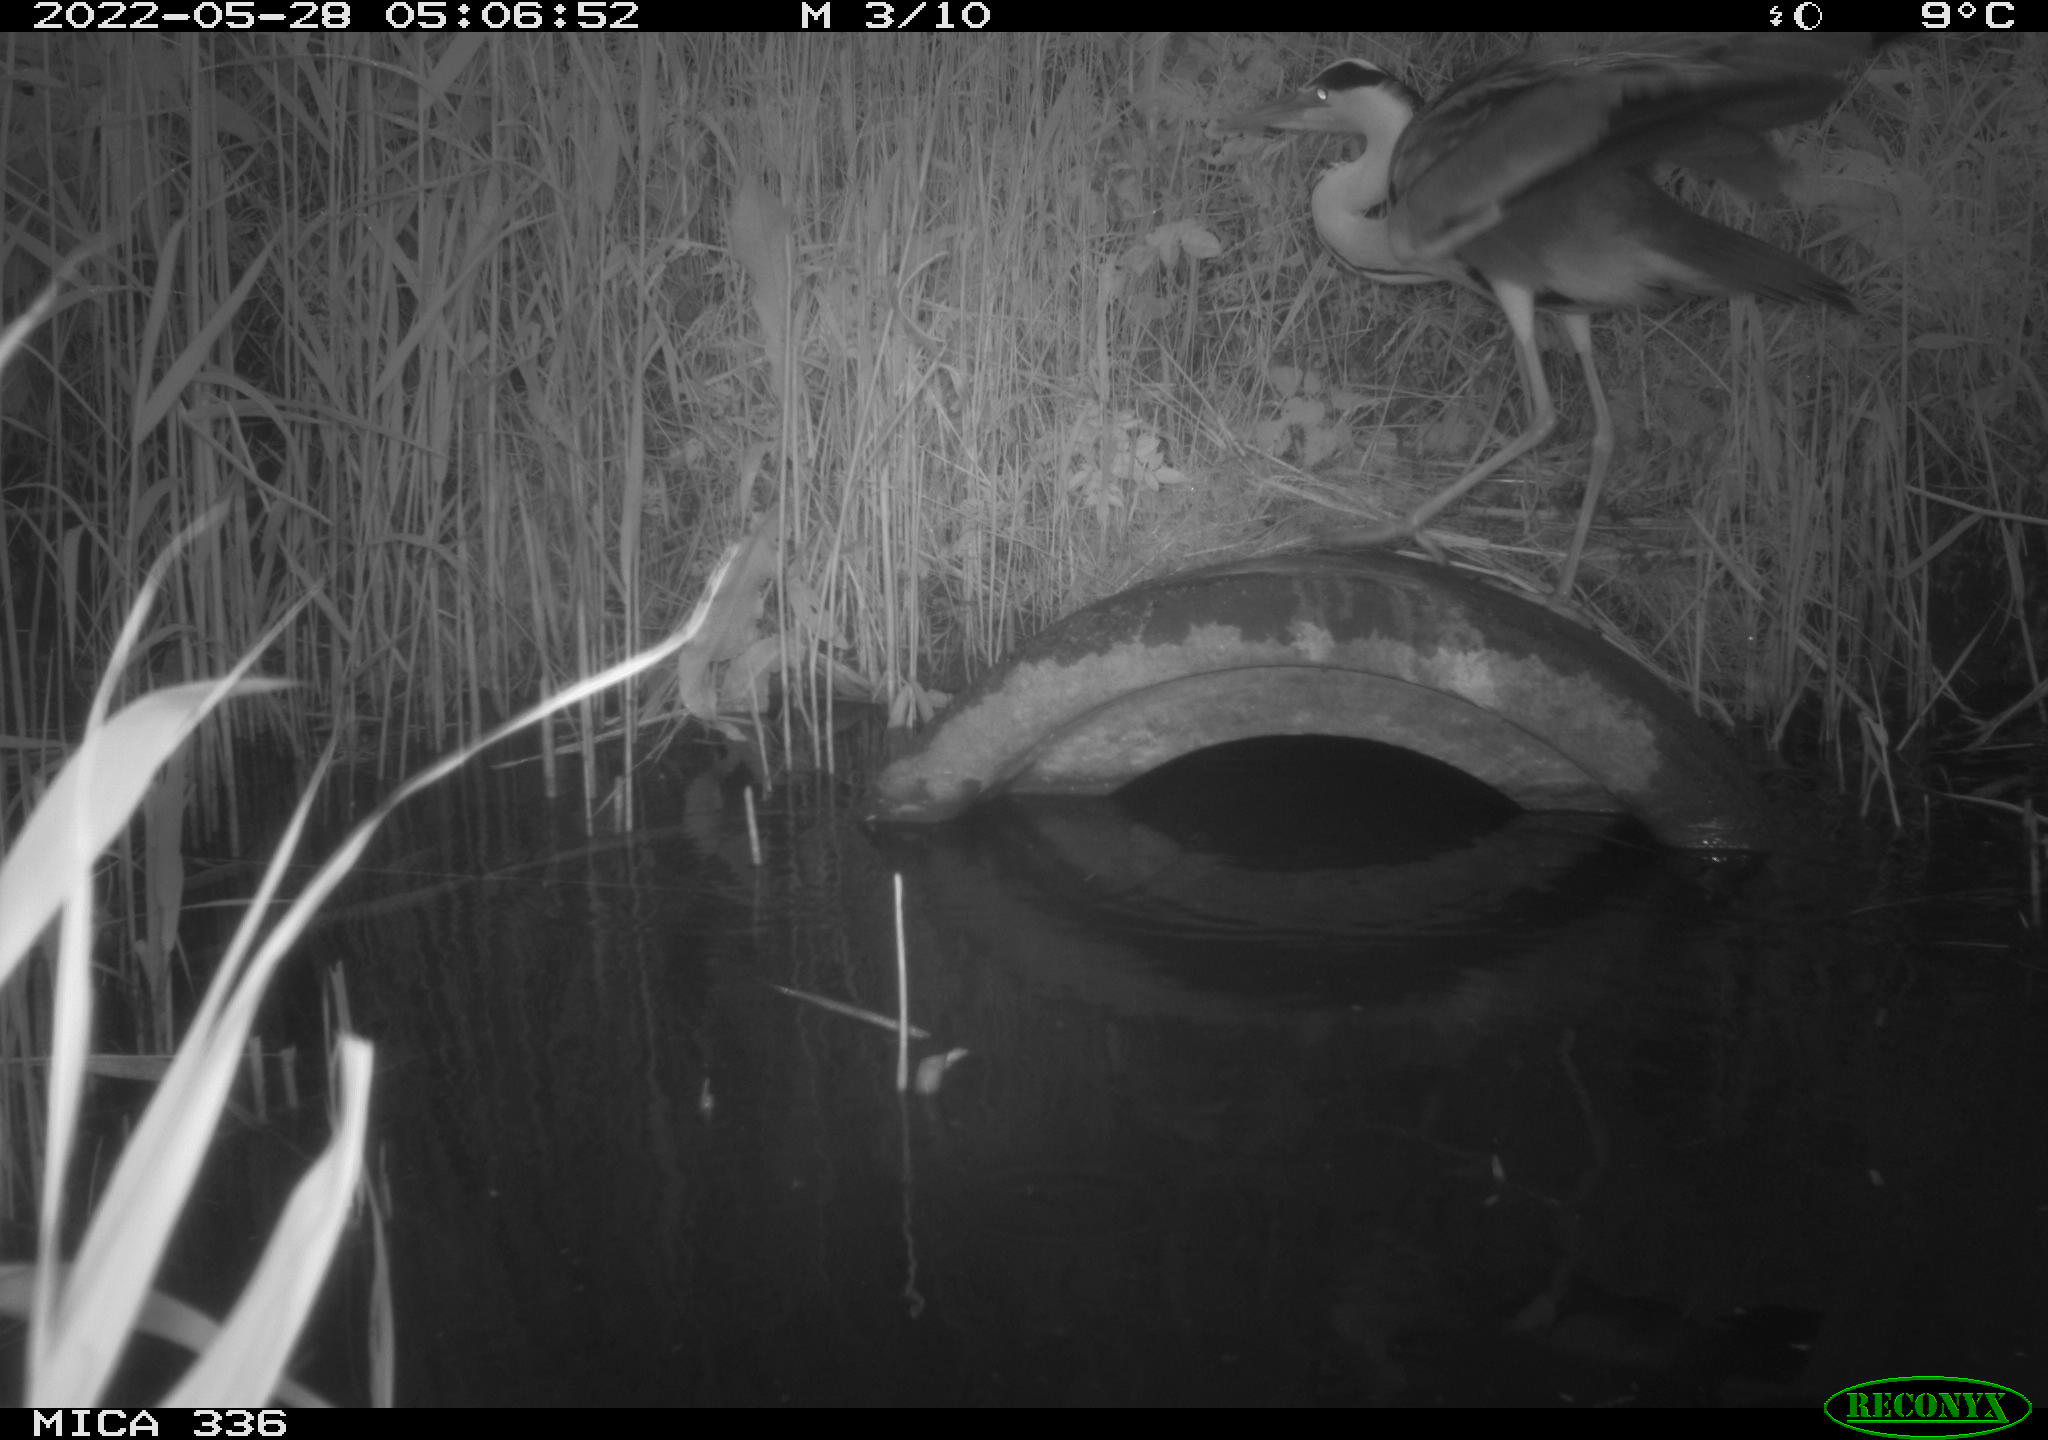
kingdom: Animalia
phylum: Chordata
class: Aves
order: Pelecaniformes
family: Ardeidae
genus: Ardea
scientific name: Ardea
